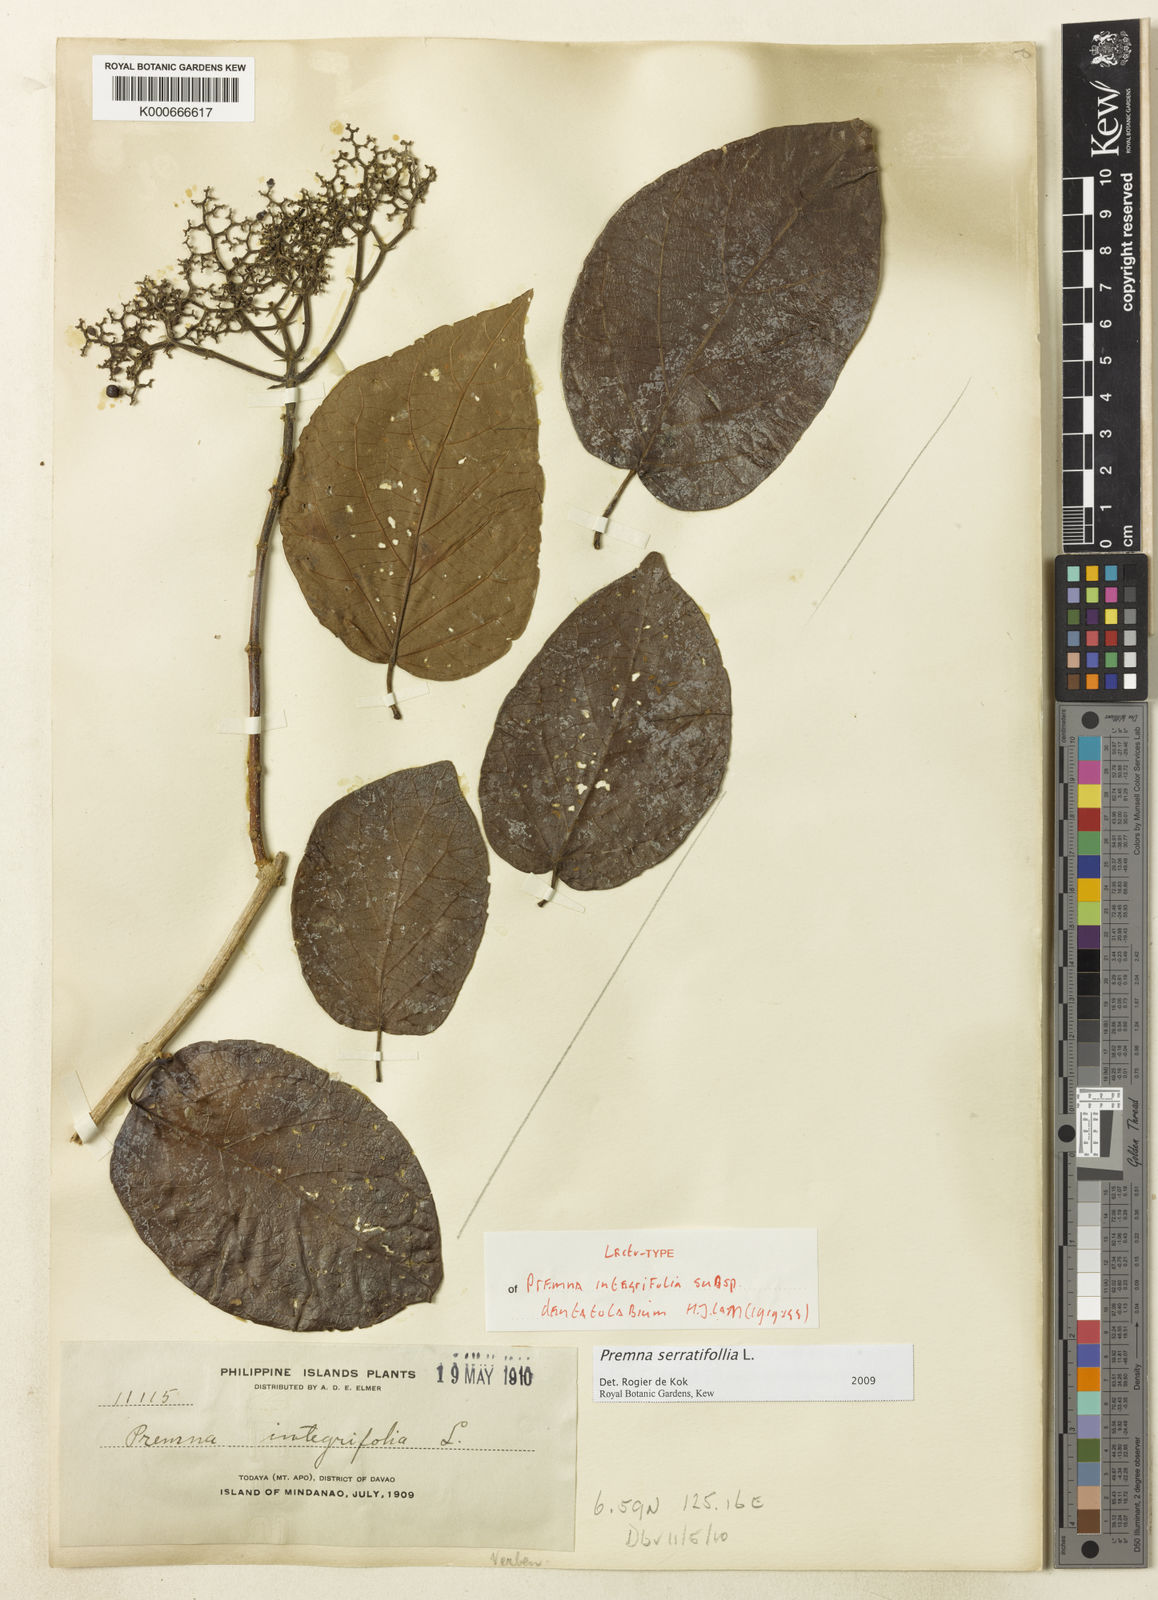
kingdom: Plantae
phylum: Tracheophyta
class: Magnoliopsida
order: Lamiales
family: Lamiaceae
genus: Premna
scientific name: Premna serratifolia
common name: Bastard guelder
